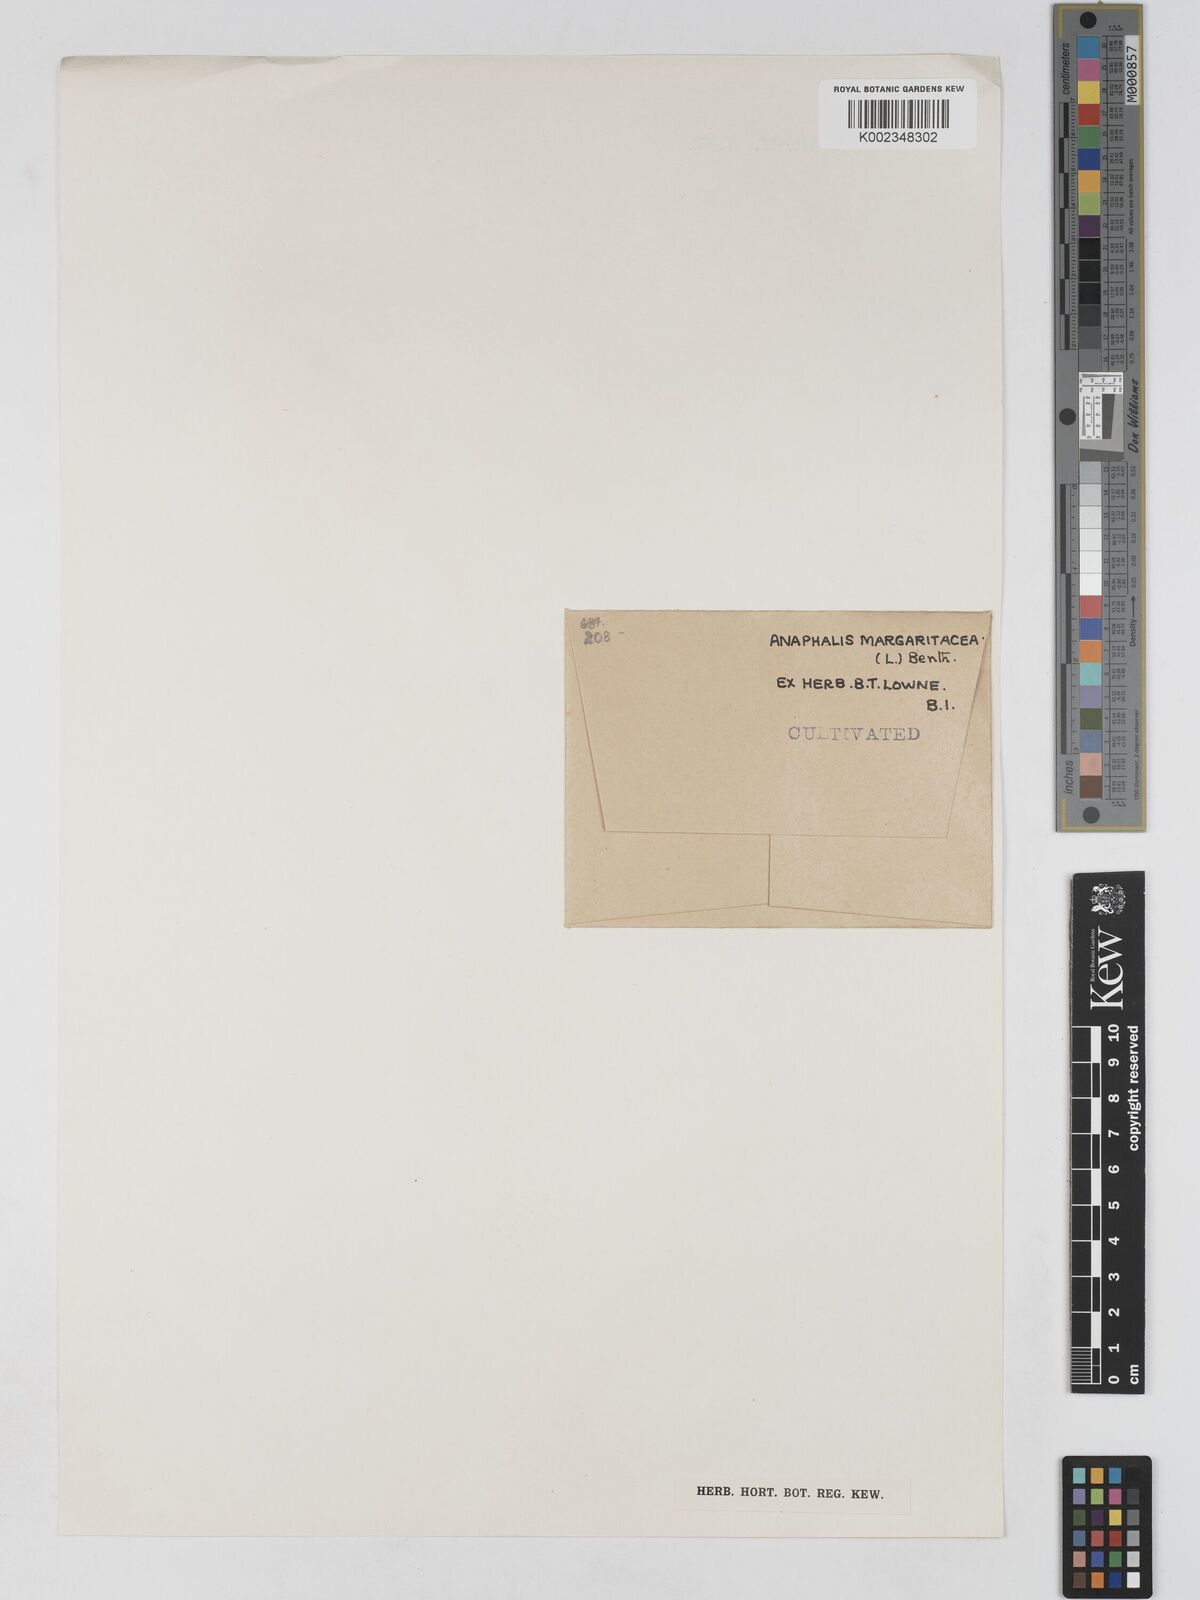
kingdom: Plantae
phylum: Tracheophyta
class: Magnoliopsida
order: Asterales
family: Asteraceae
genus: Anaphalis
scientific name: Anaphalis margaritacea
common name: Pearly everlasting
